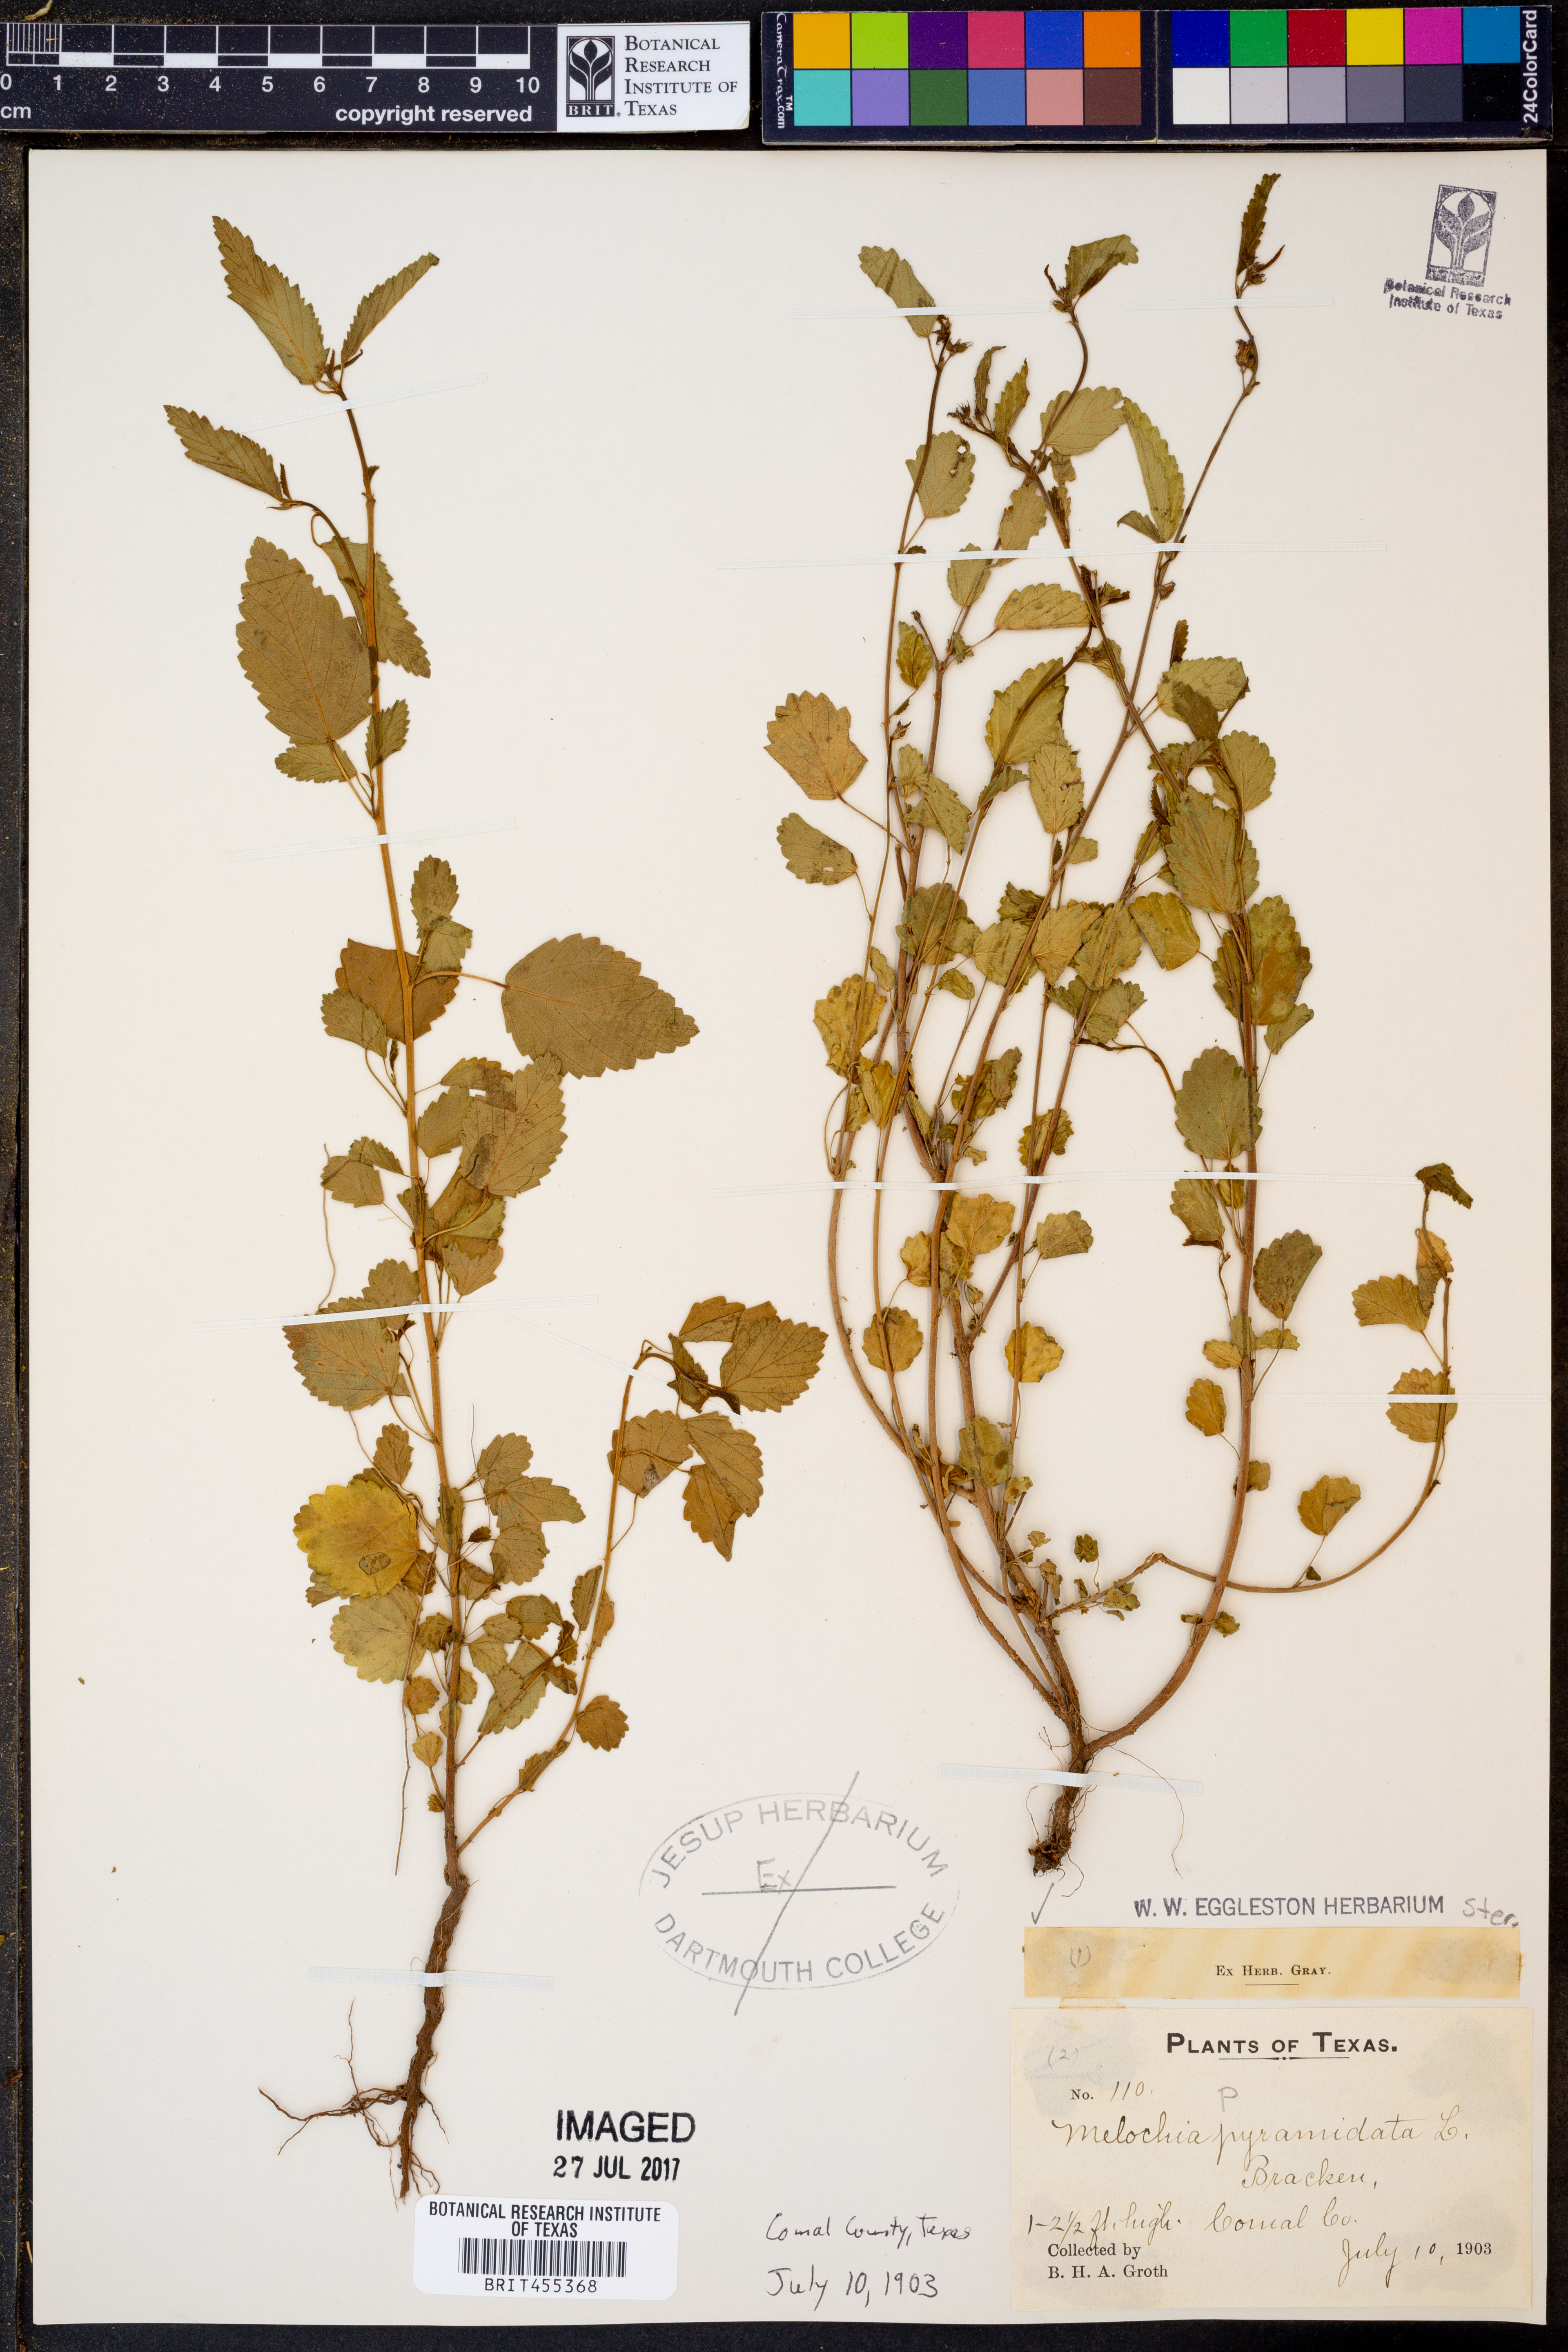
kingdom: Plantae
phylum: Tracheophyta
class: Magnoliopsida
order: Malvales
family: Malvaceae
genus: Melochia
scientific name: Melochia pyramidata
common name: Pyramidflower
